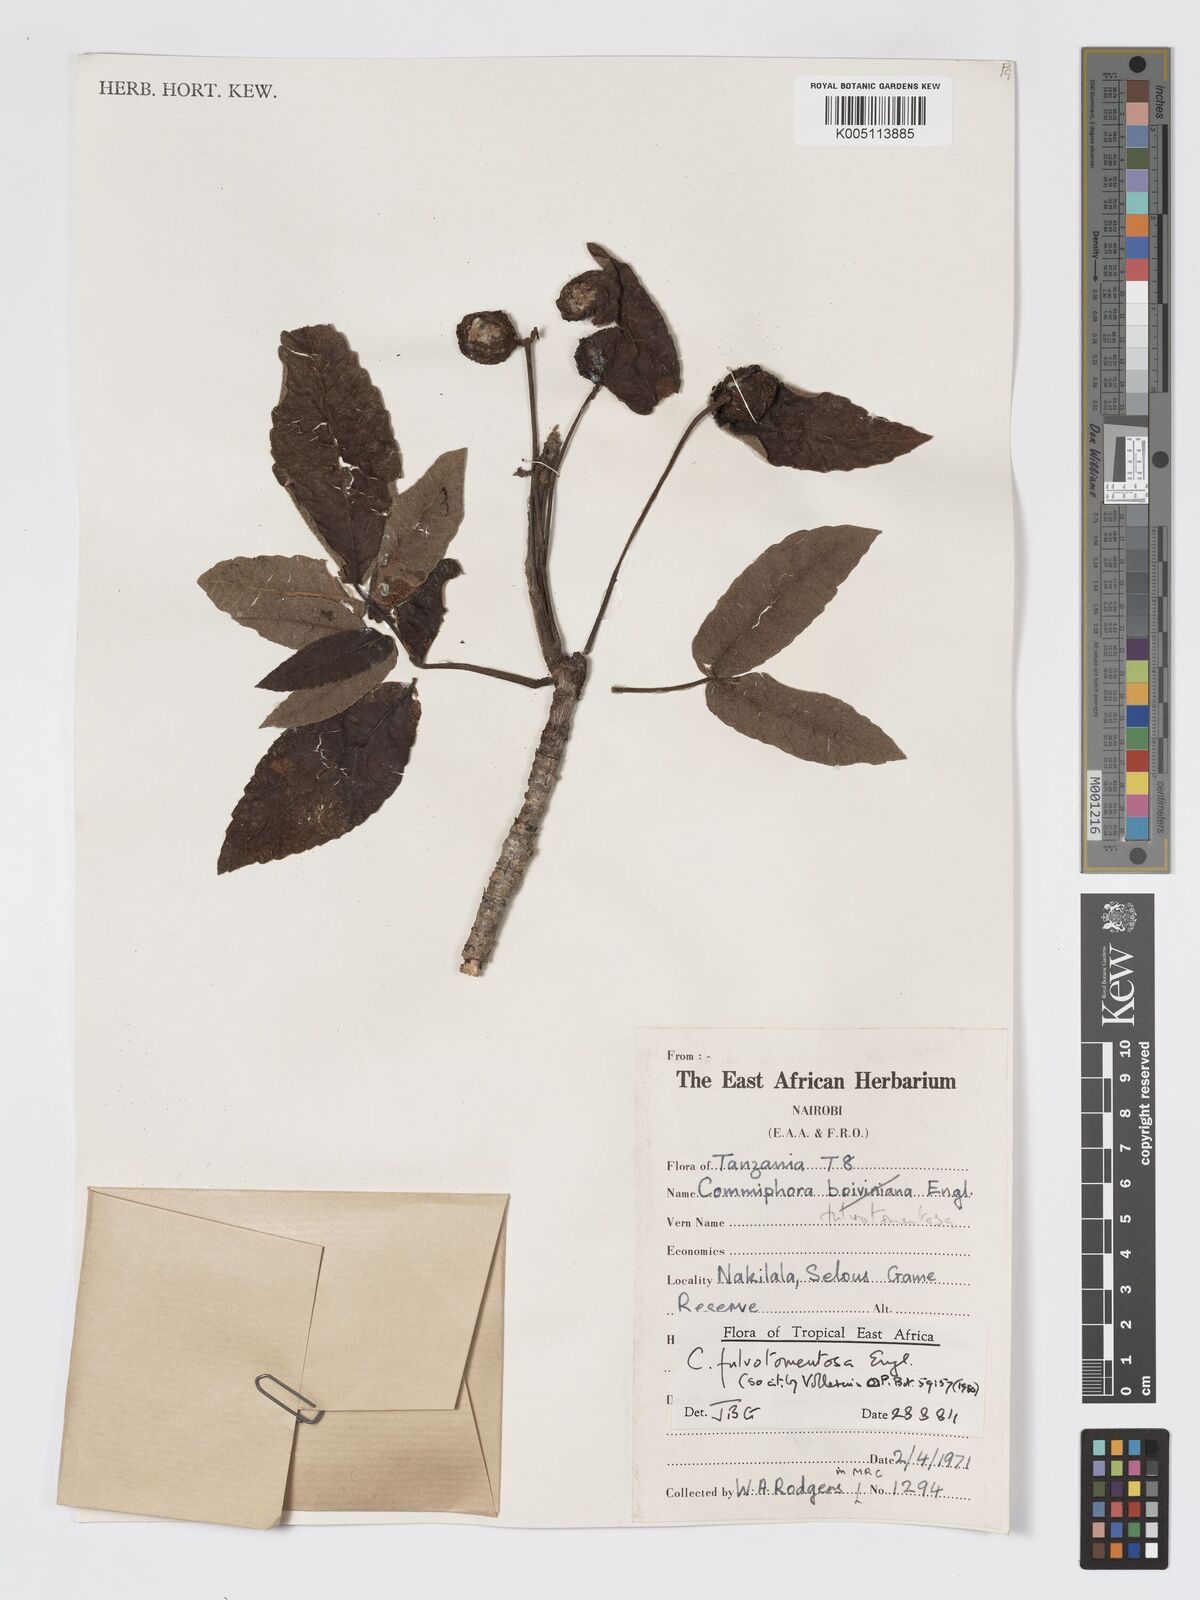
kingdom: Plantae
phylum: Tracheophyta
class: Magnoliopsida
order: Sapindales
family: Burseraceae
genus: Commiphora
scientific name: Commiphora fulvotomentosa
